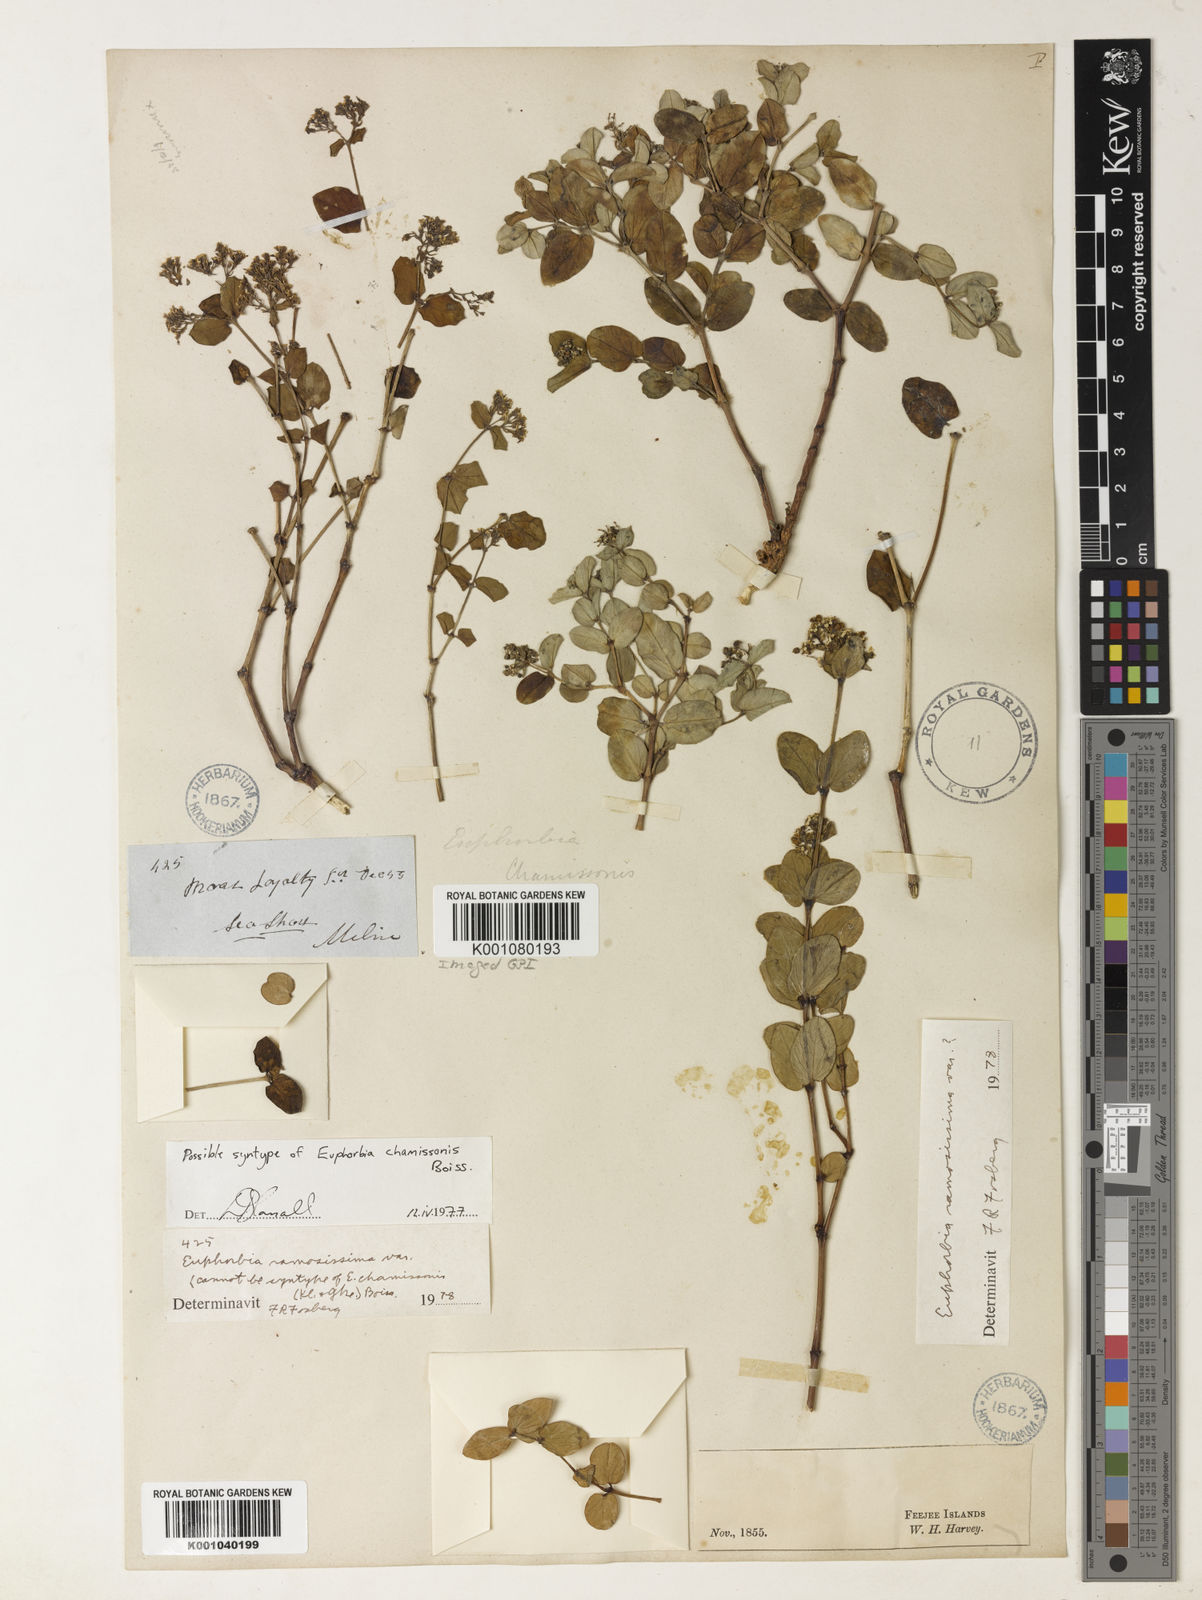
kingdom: Plantae
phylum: Tracheophyta
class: Magnoliopsida
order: Malpighiales
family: Euphorbiaceae
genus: Euphorbia
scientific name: Euphorbia chamissonis
